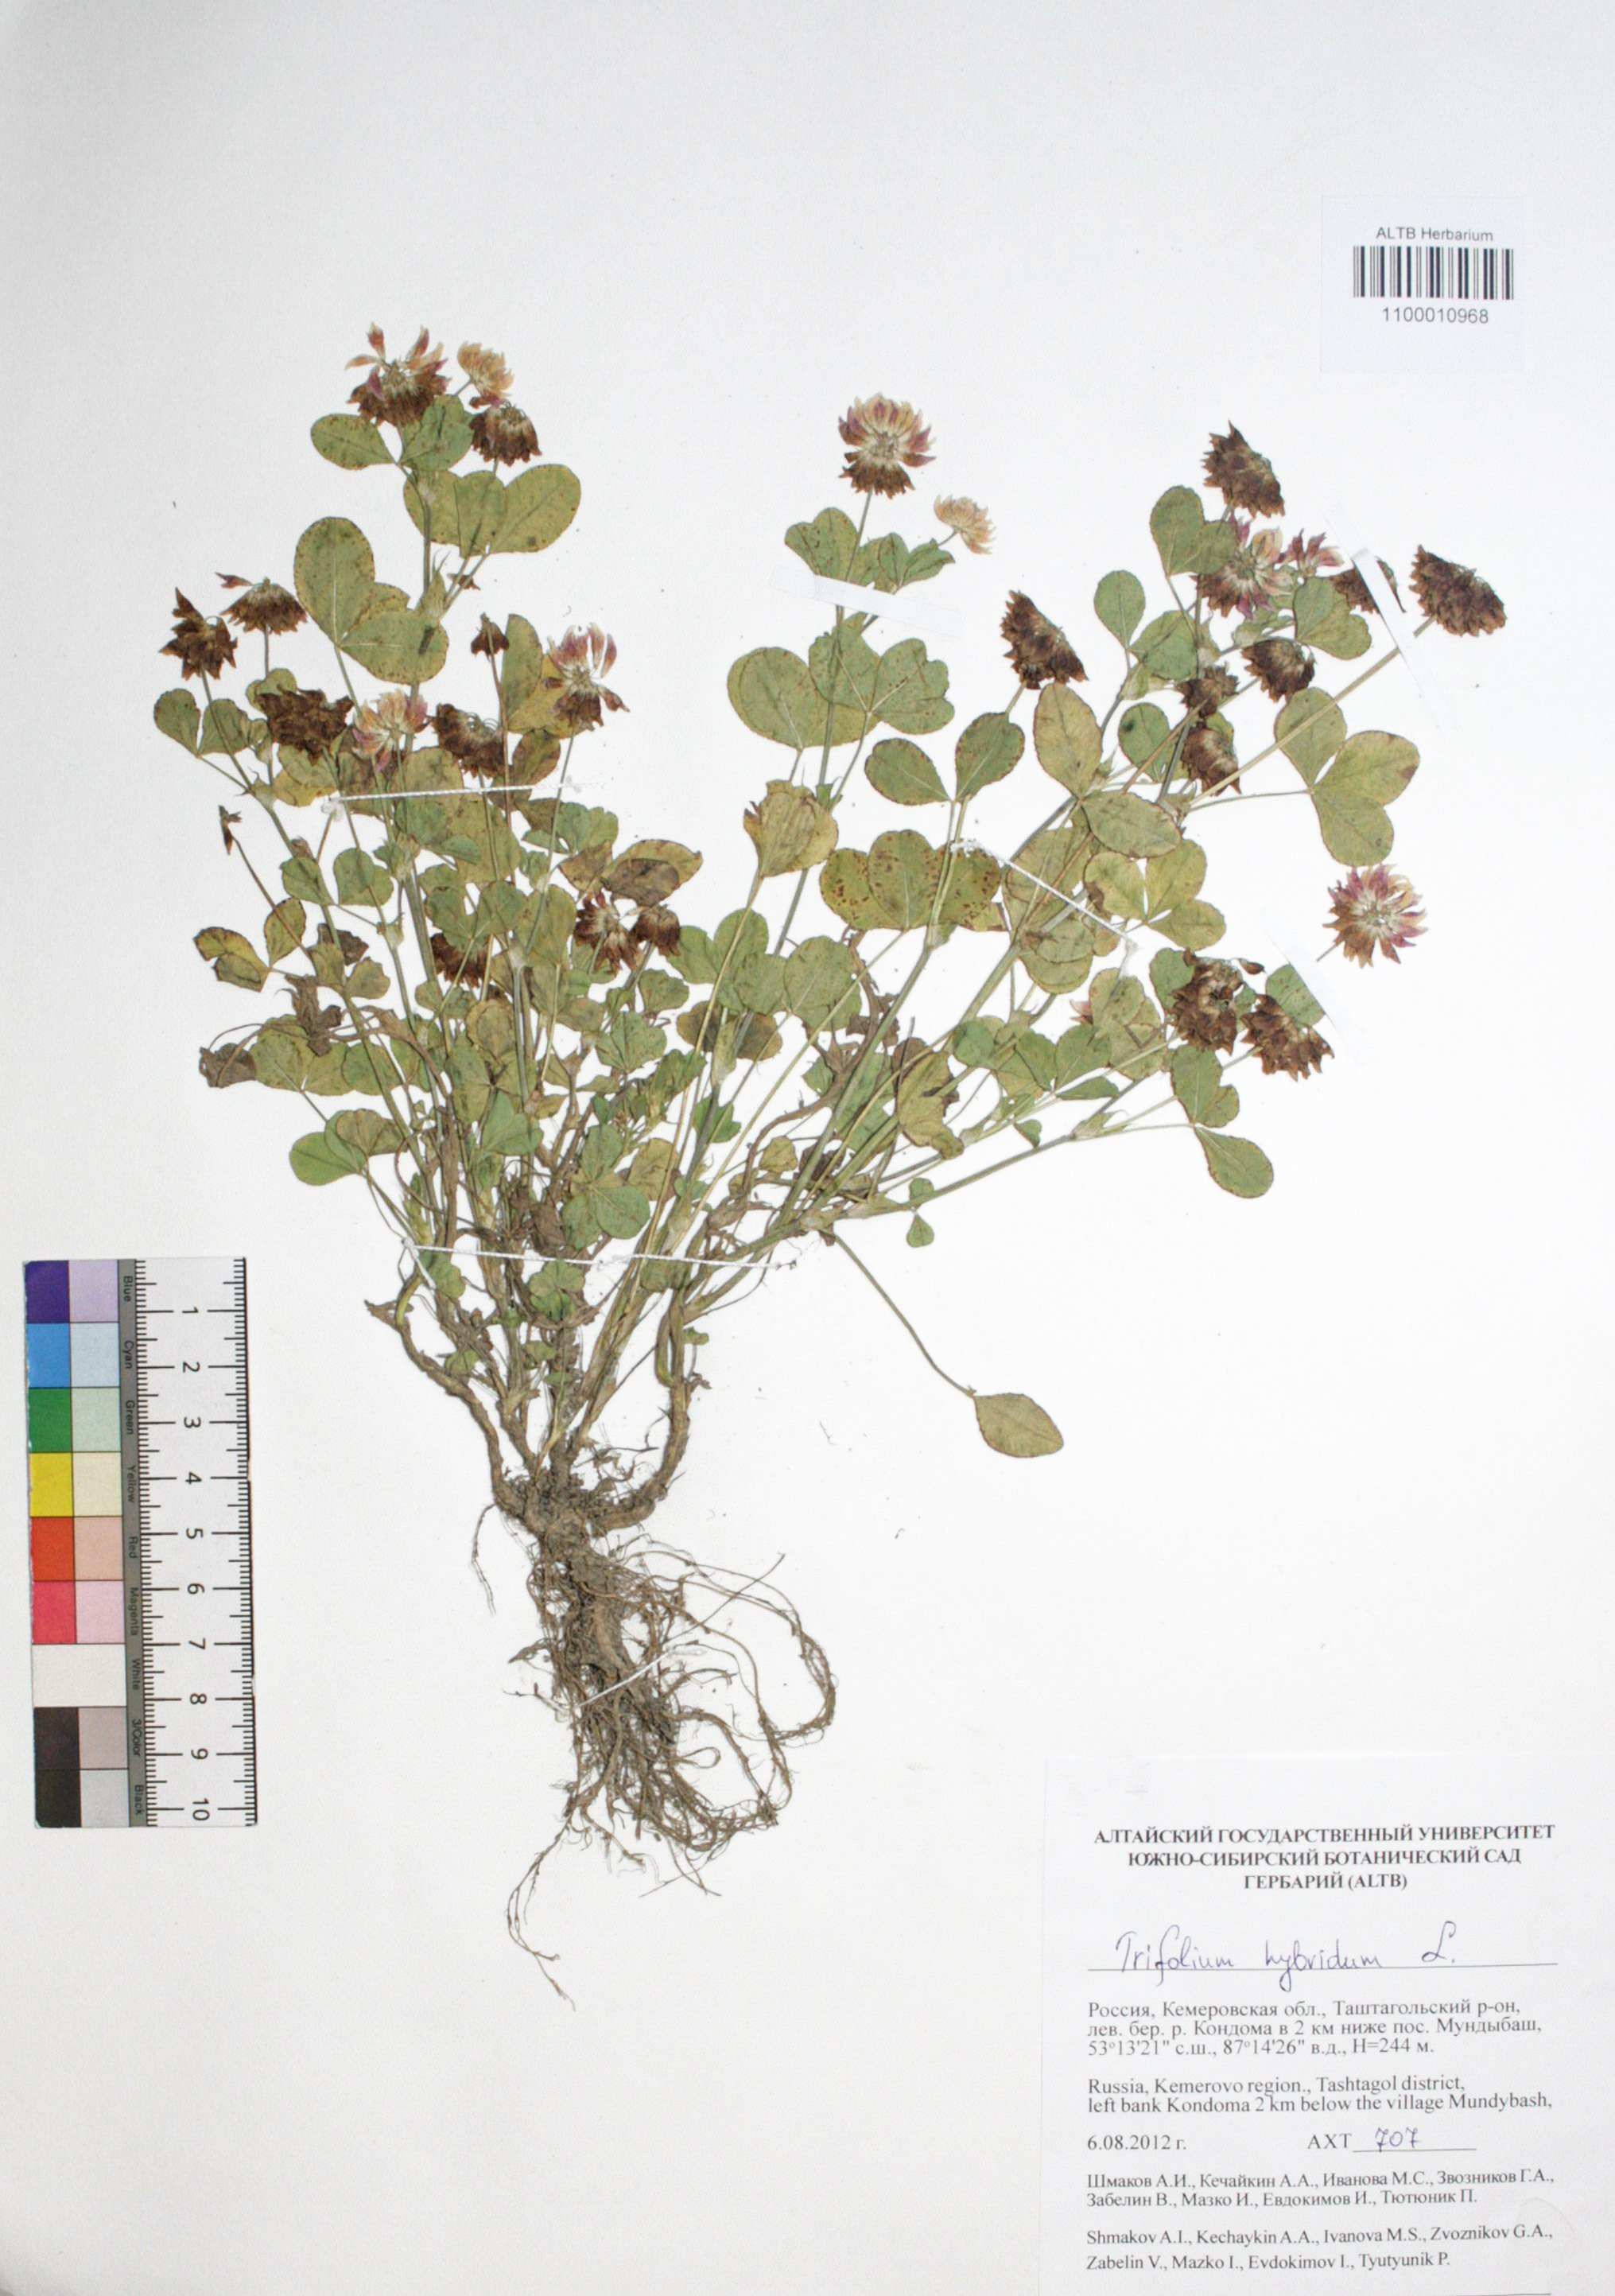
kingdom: Plantae
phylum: Tracheophyta
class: Magnoliopsida
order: Fabales
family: Fabaceae
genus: Trifolium
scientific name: Trifolium hybridum
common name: Alsike clover
